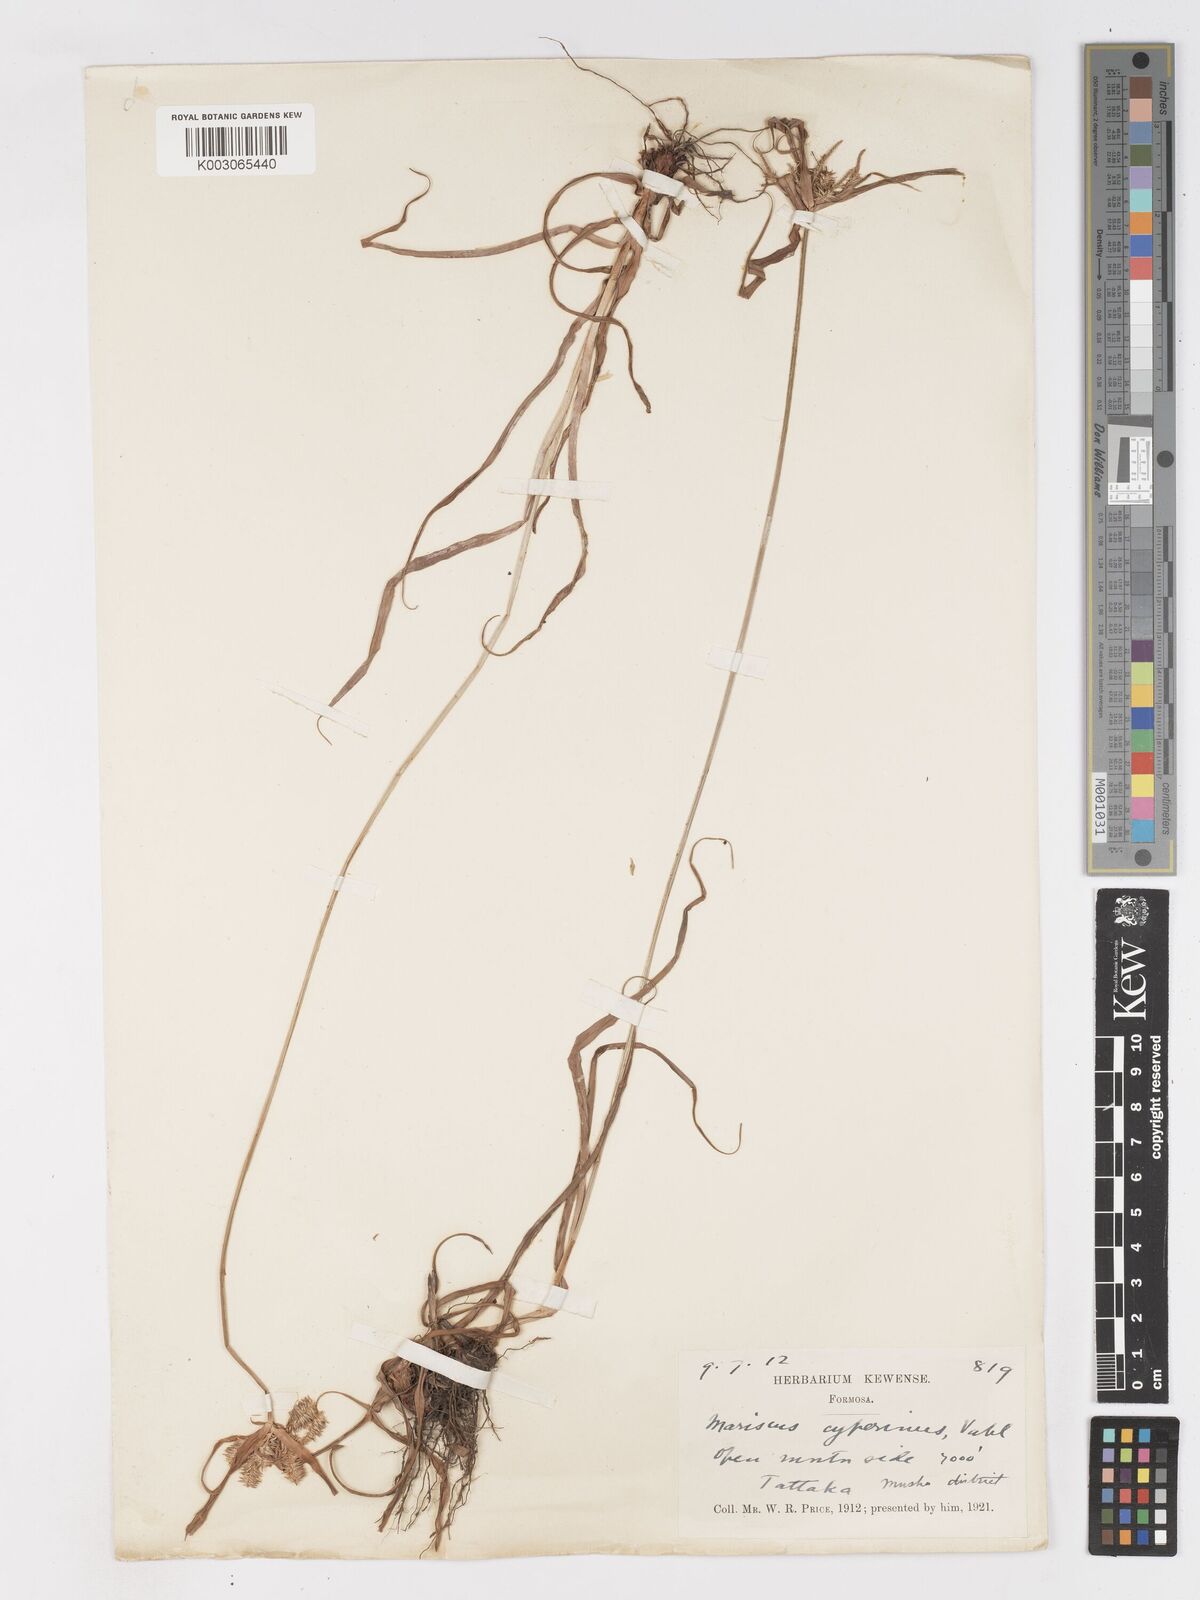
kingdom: Plantae
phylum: Tracheophyta
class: Liliopsida
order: Poales
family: Cyperaceae
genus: Cyperus
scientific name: Cyperus cyperinus
